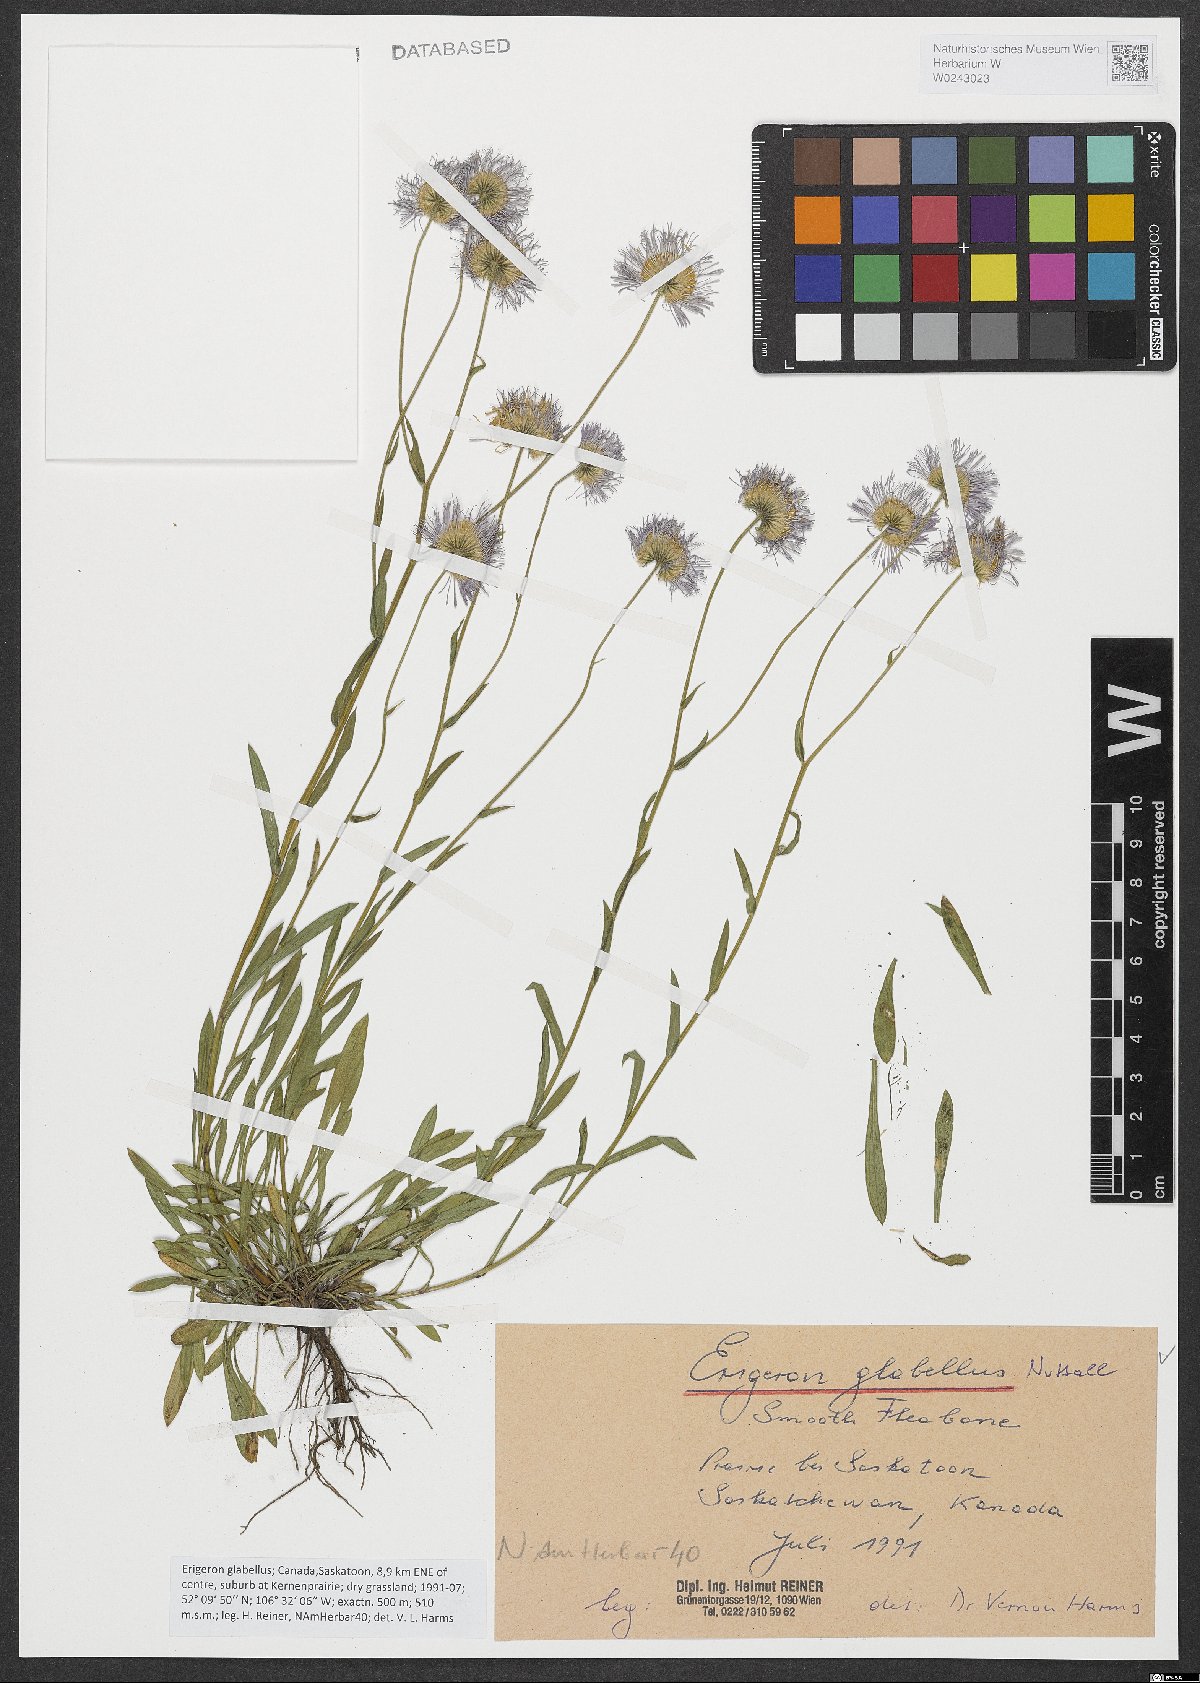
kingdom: Plantae
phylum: Tracheophyta
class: Magnoliopsida
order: Asterales
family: Asteraceae
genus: Erigeron
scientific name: Erigeron glabellus
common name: Smooth fleabane
